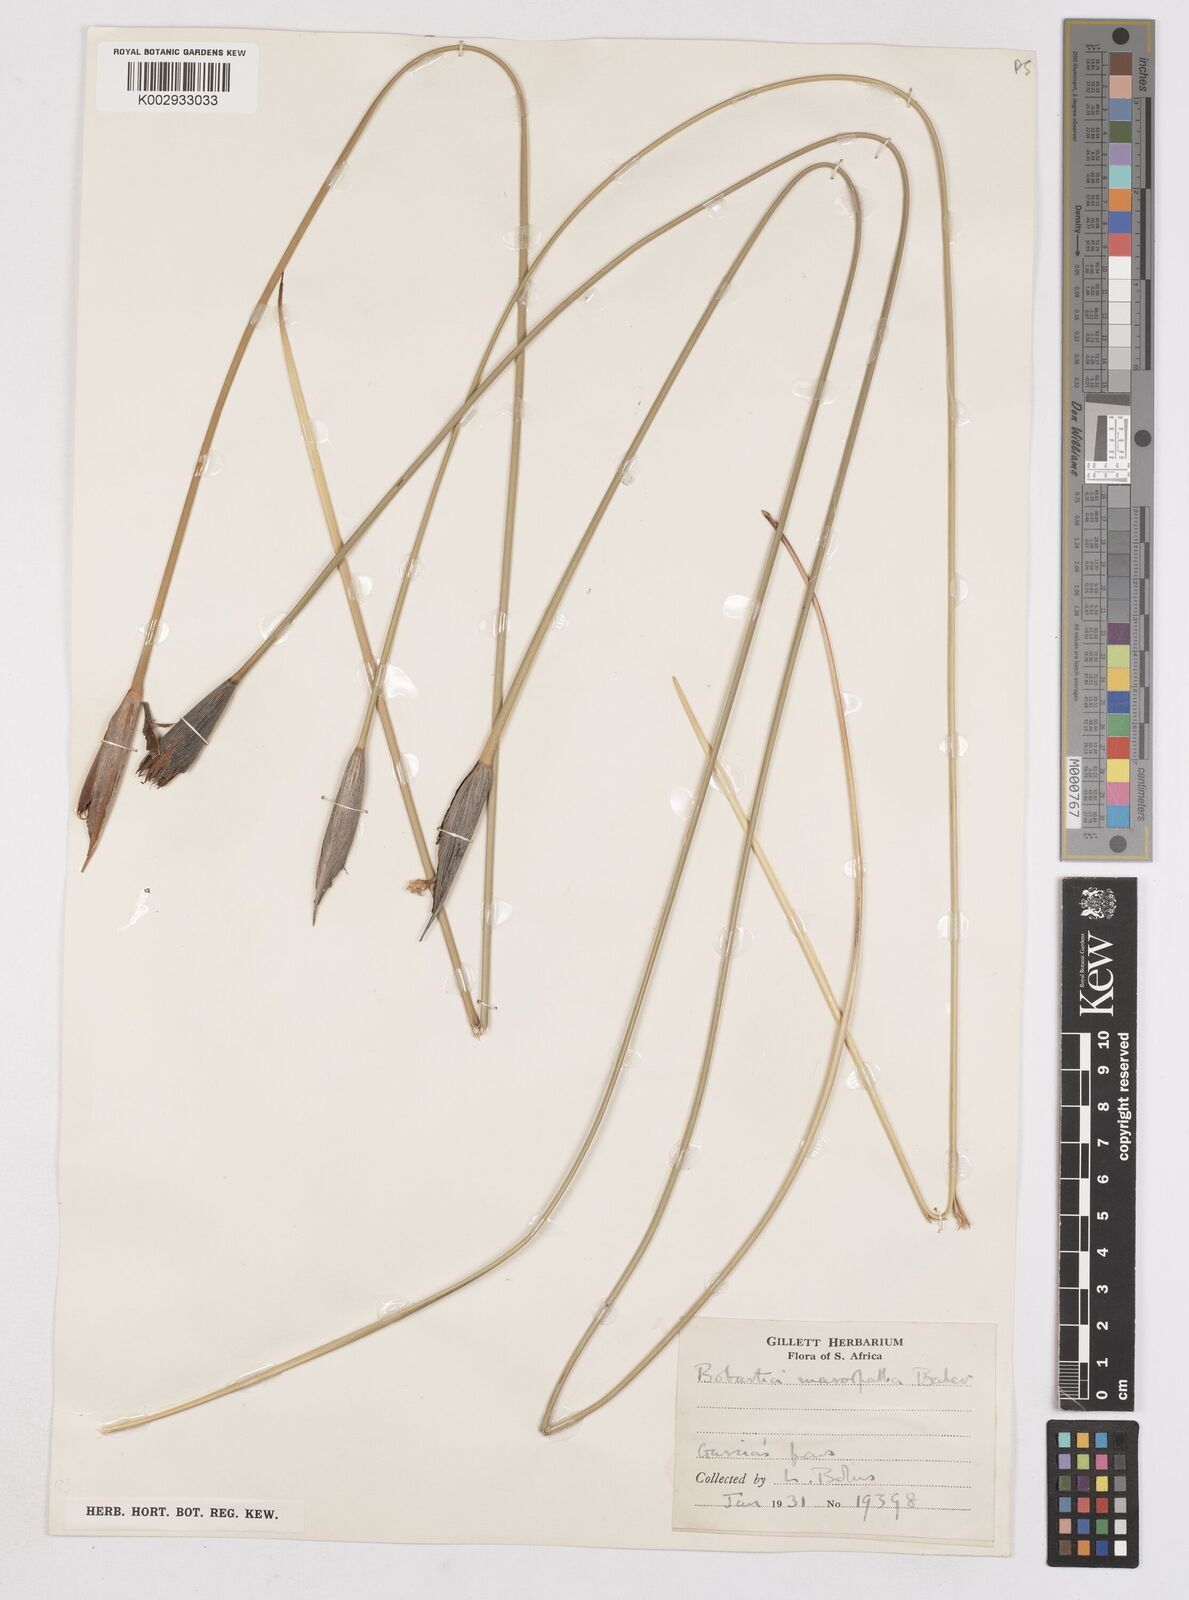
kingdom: Plantae
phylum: Tracheophyta
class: Liliopsida
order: Asparagales
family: Iridaceae
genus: Bobartia
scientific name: Bobartia macrospatha
